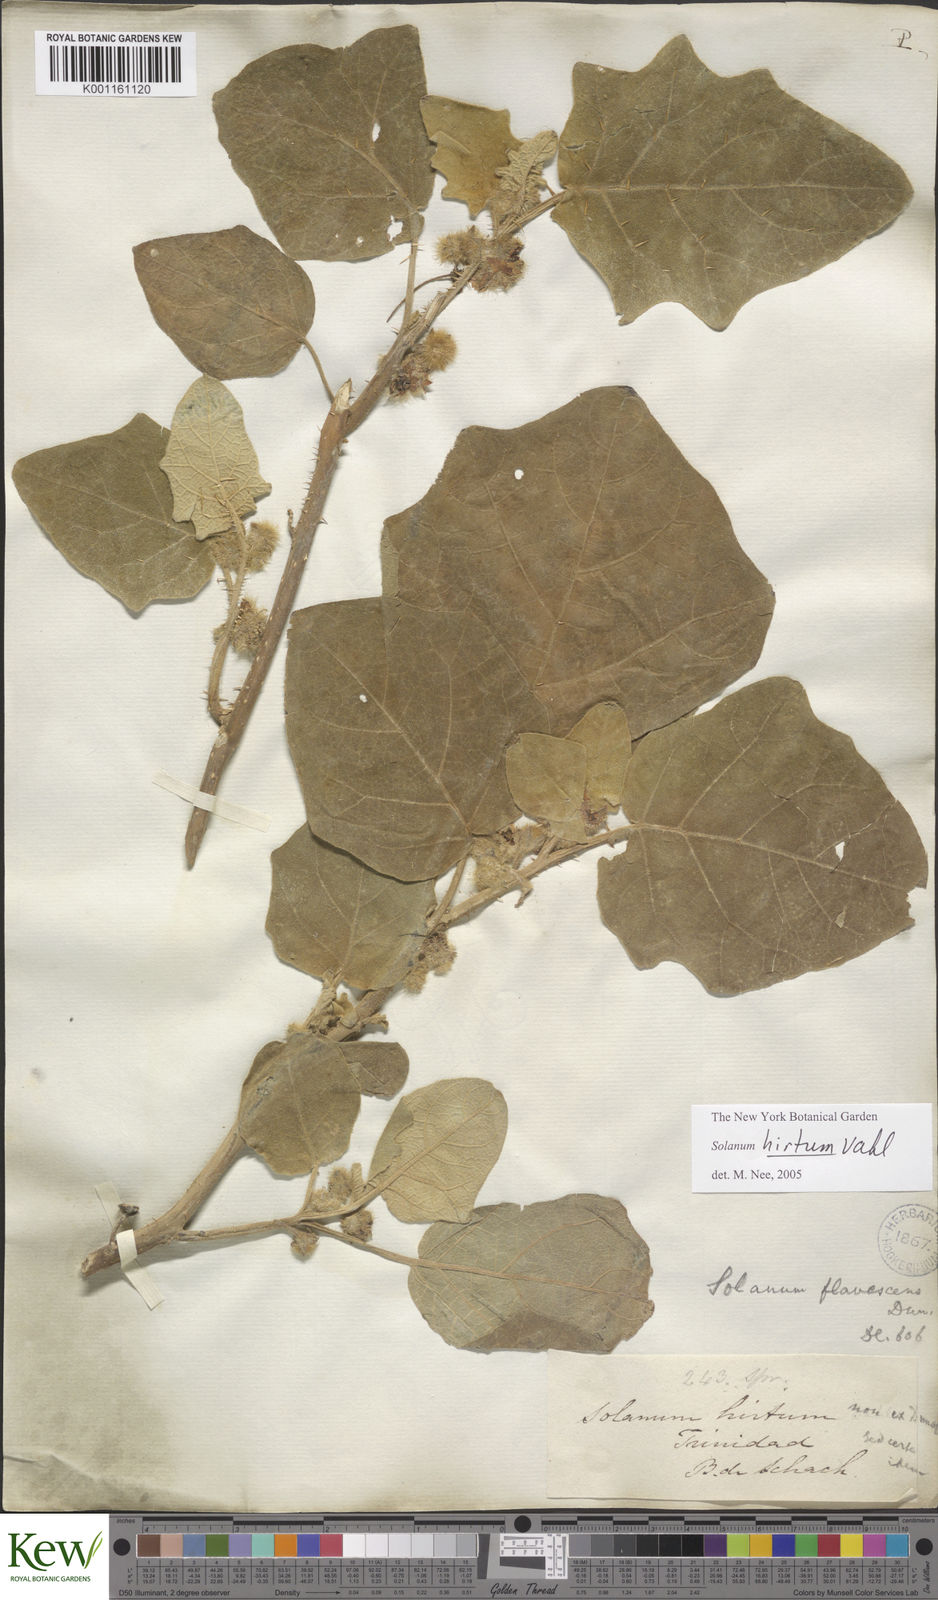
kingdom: Plantae
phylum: Tracheophyta
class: Magnoliopsida
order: Solanales
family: Solanaceae
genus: Solanum
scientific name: Solanum hirtum
